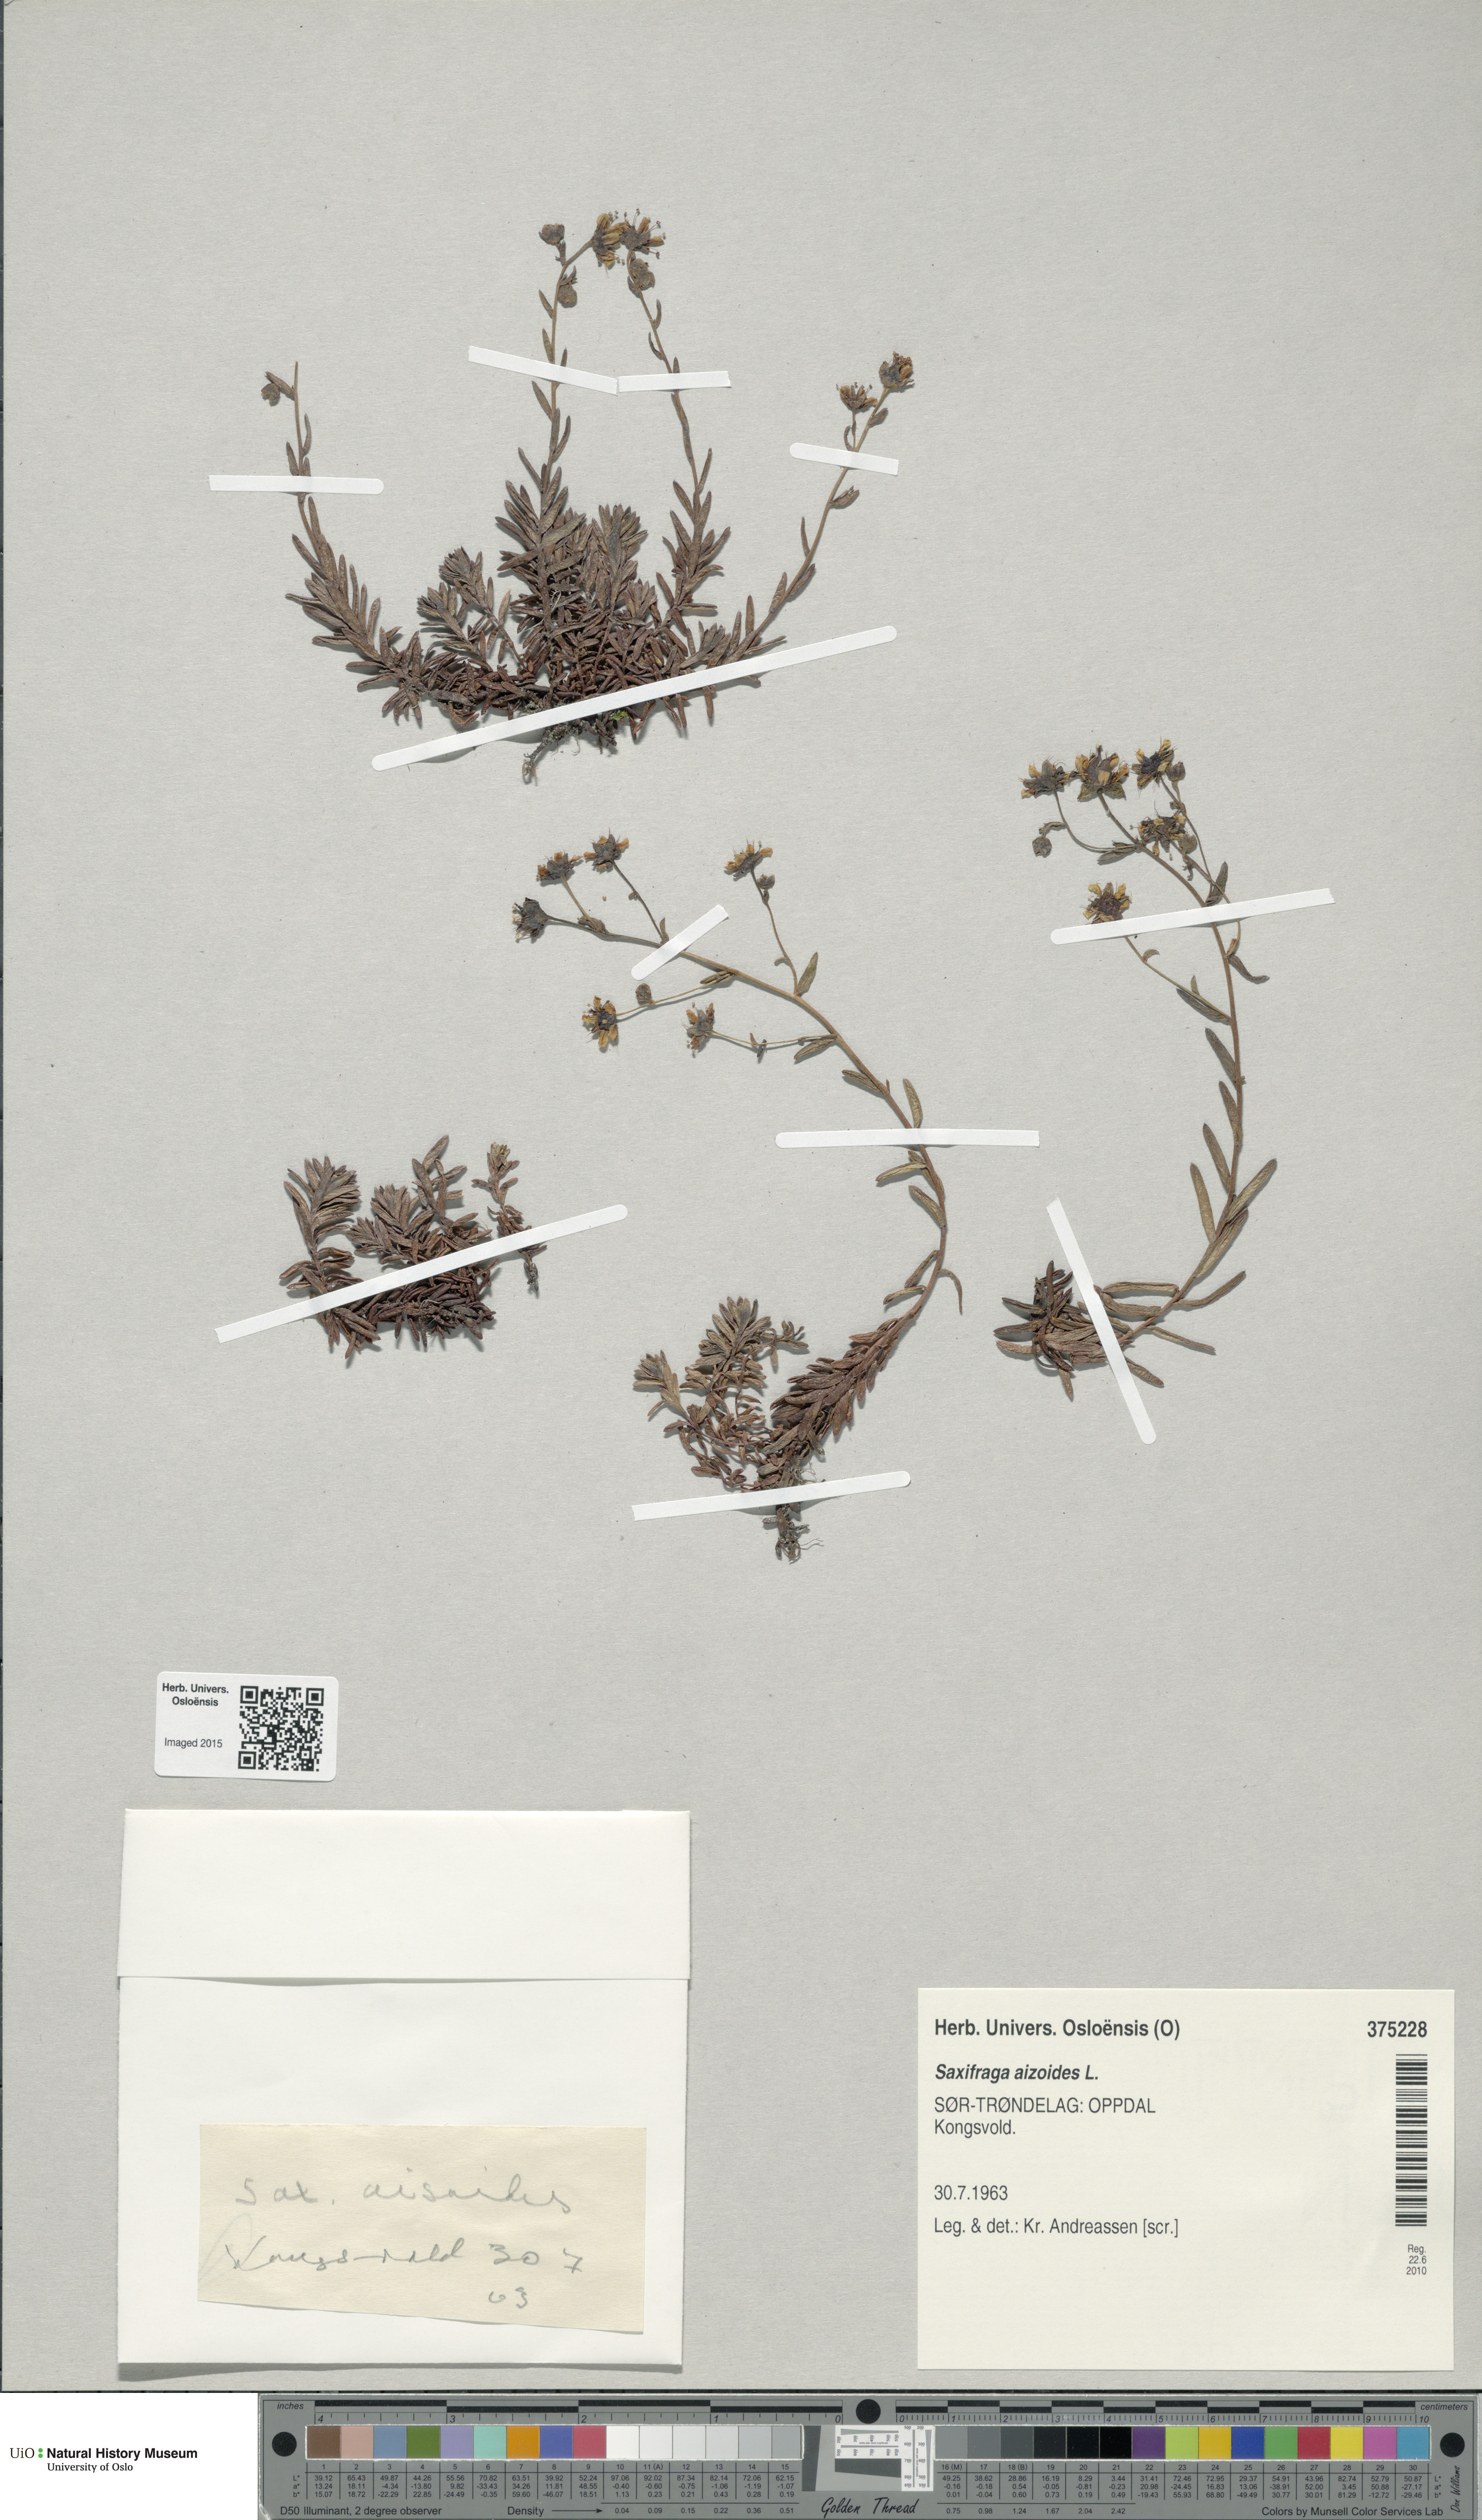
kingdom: Plantae
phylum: Tracheophyta
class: Magnoliopsida
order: Saxifragales
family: Saxifragaceae
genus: Saxifraga
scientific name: Saxifraga aizoides
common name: Yellow mountain saxifrage
